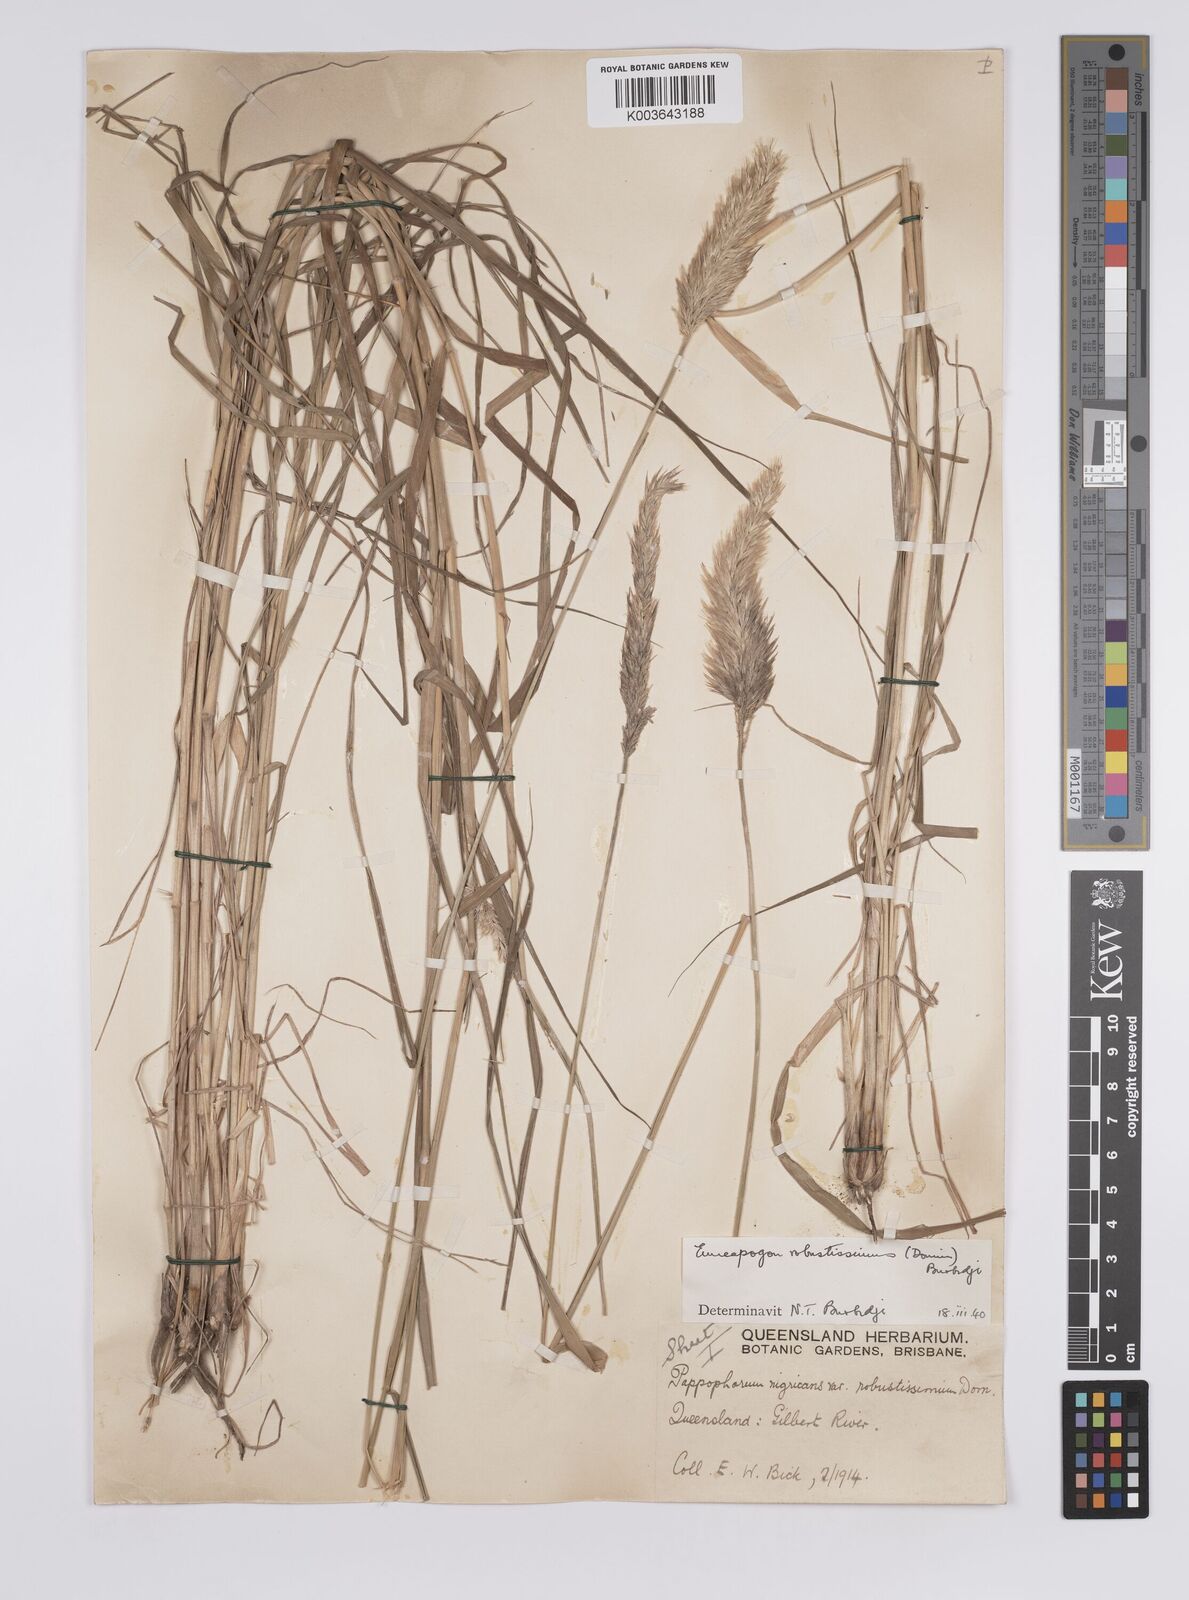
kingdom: Plantae
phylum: Tracheophyta
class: Liliopsida
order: Poales
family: Poaceae
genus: Enneapogon
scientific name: Enneapogon robustissimus
